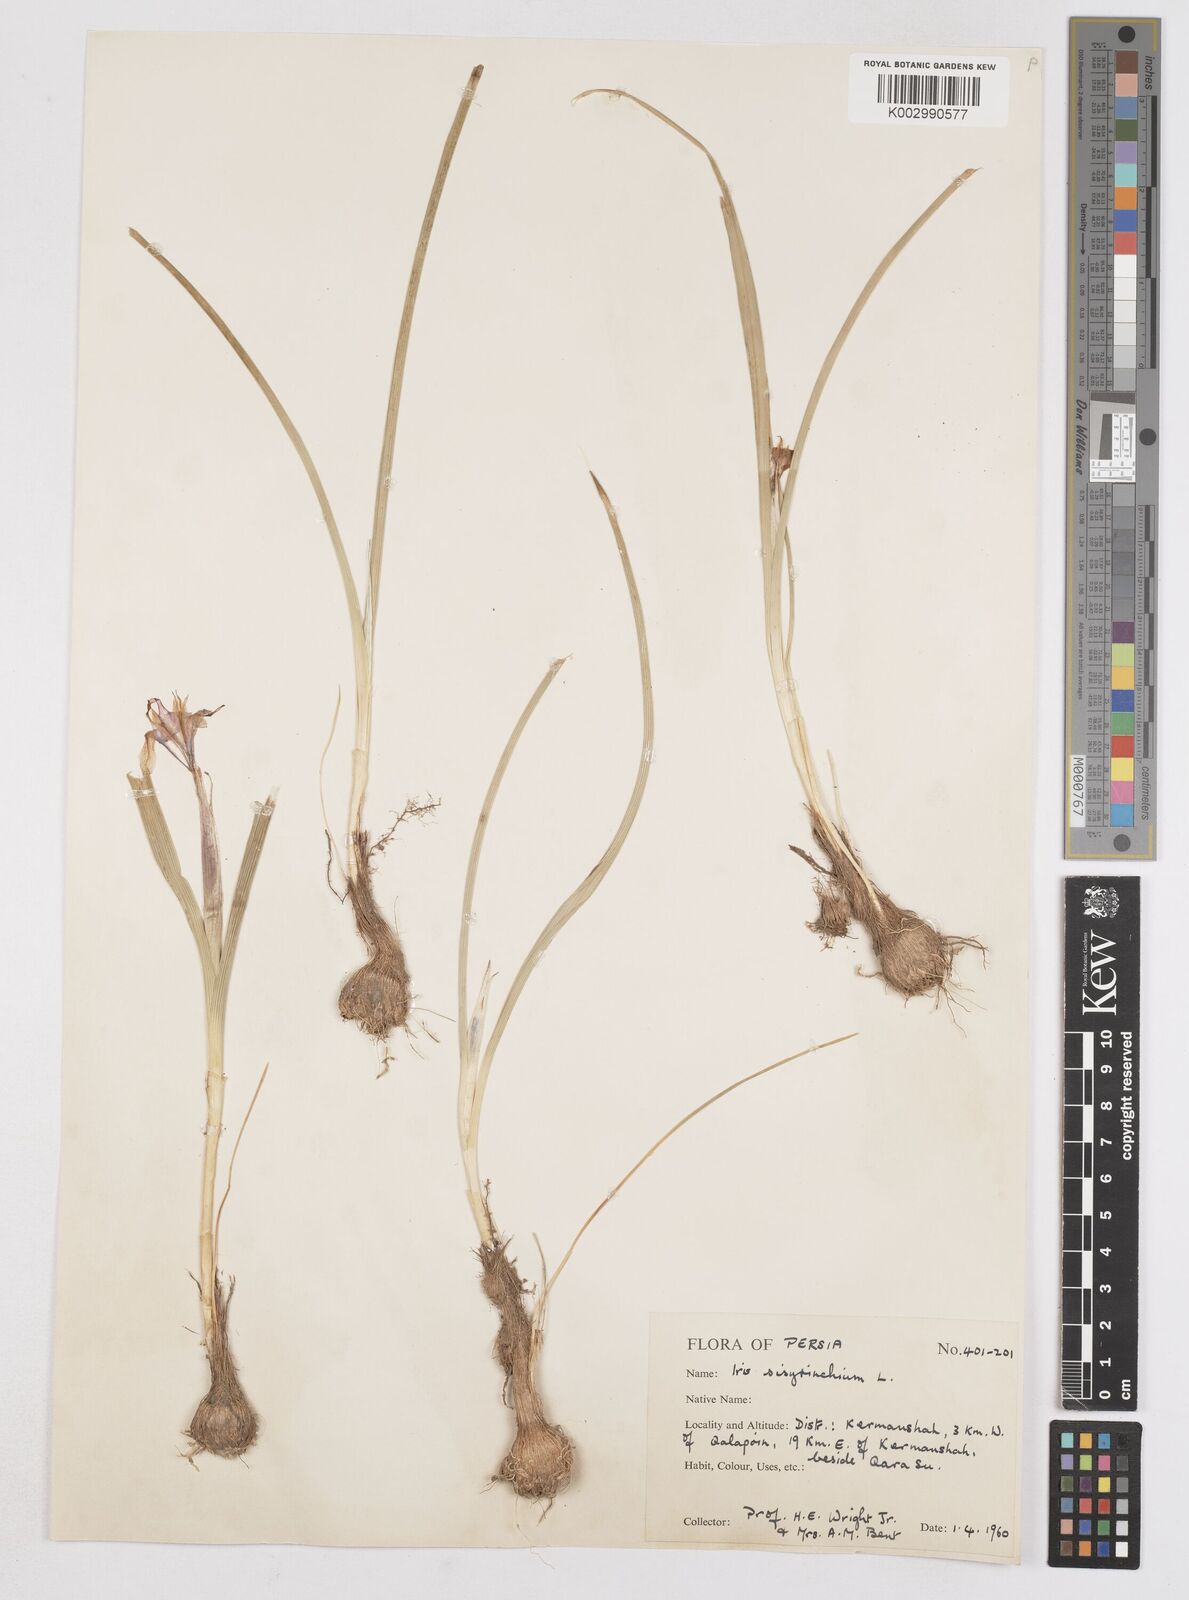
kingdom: Plantae
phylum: Tracheophyta
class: Liliopsida
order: Asparagales
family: Iridaceae
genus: Moraea
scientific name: Moraea sisyrinchium
